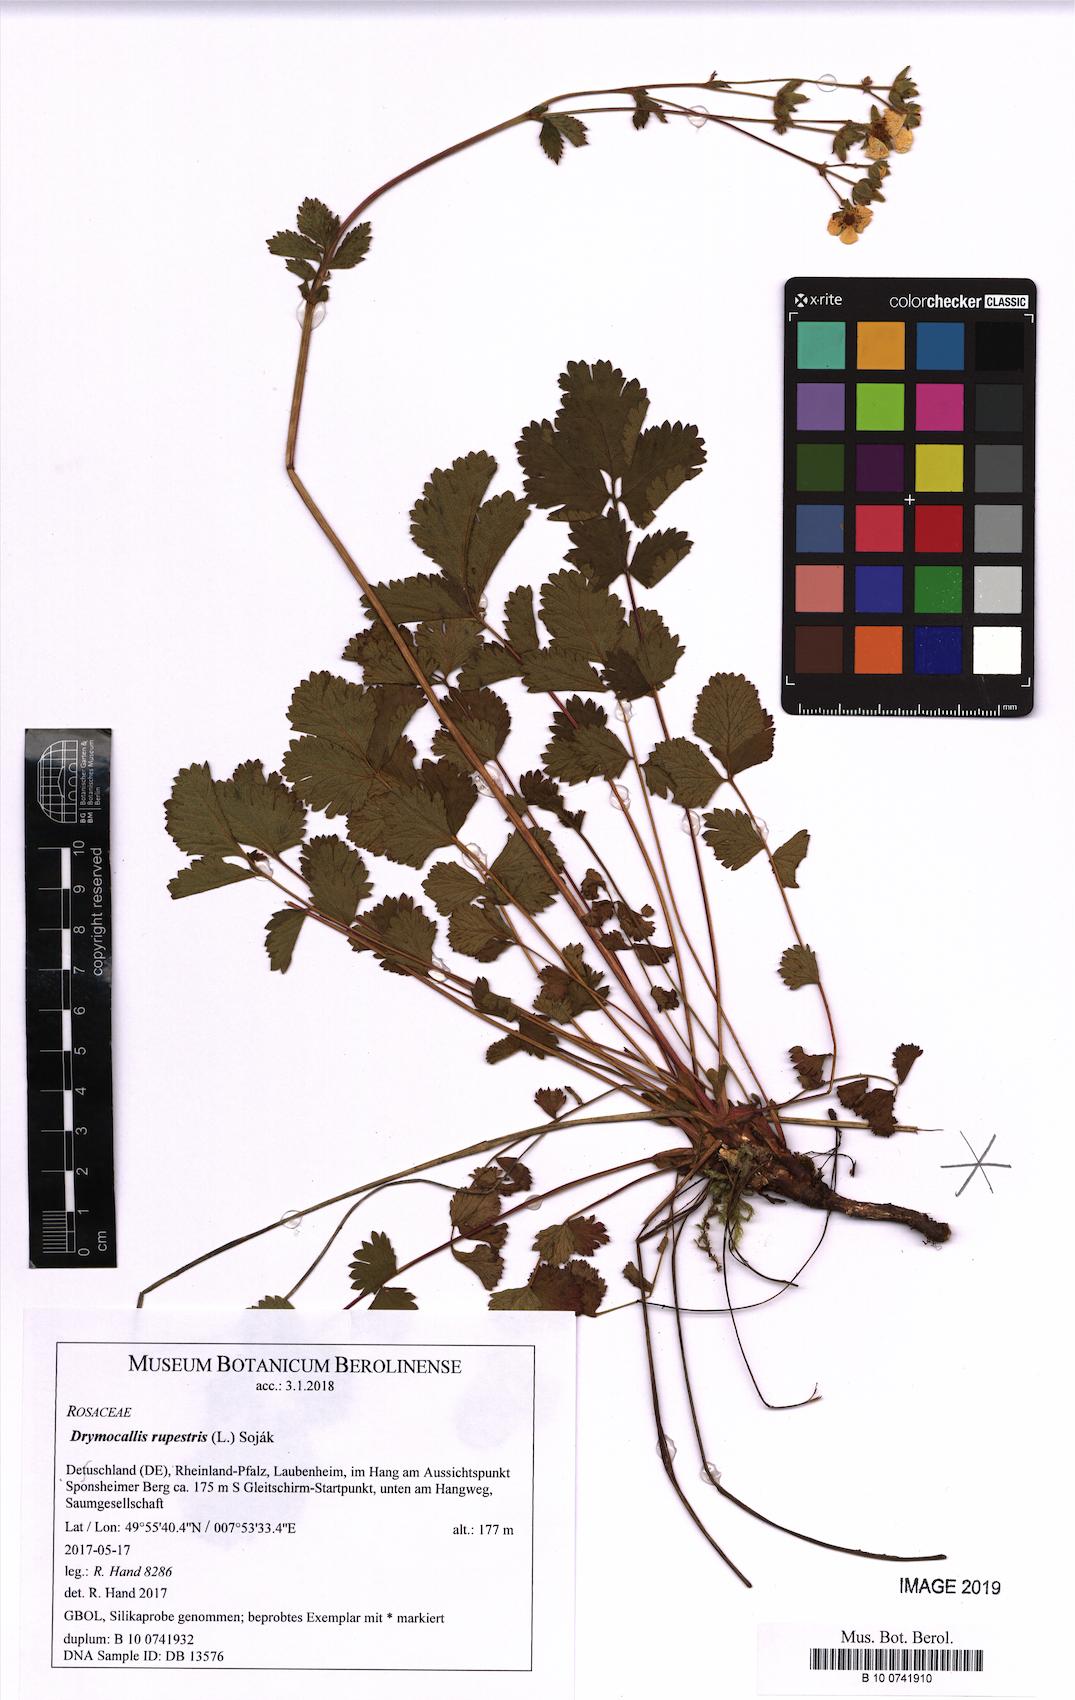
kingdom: Plantae
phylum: Tracheophyta
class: Magnoliopsida
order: Rosales
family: Rosaceae
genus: Drymocallis
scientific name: Drymocallis rupestris
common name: Rock cinquefoil
